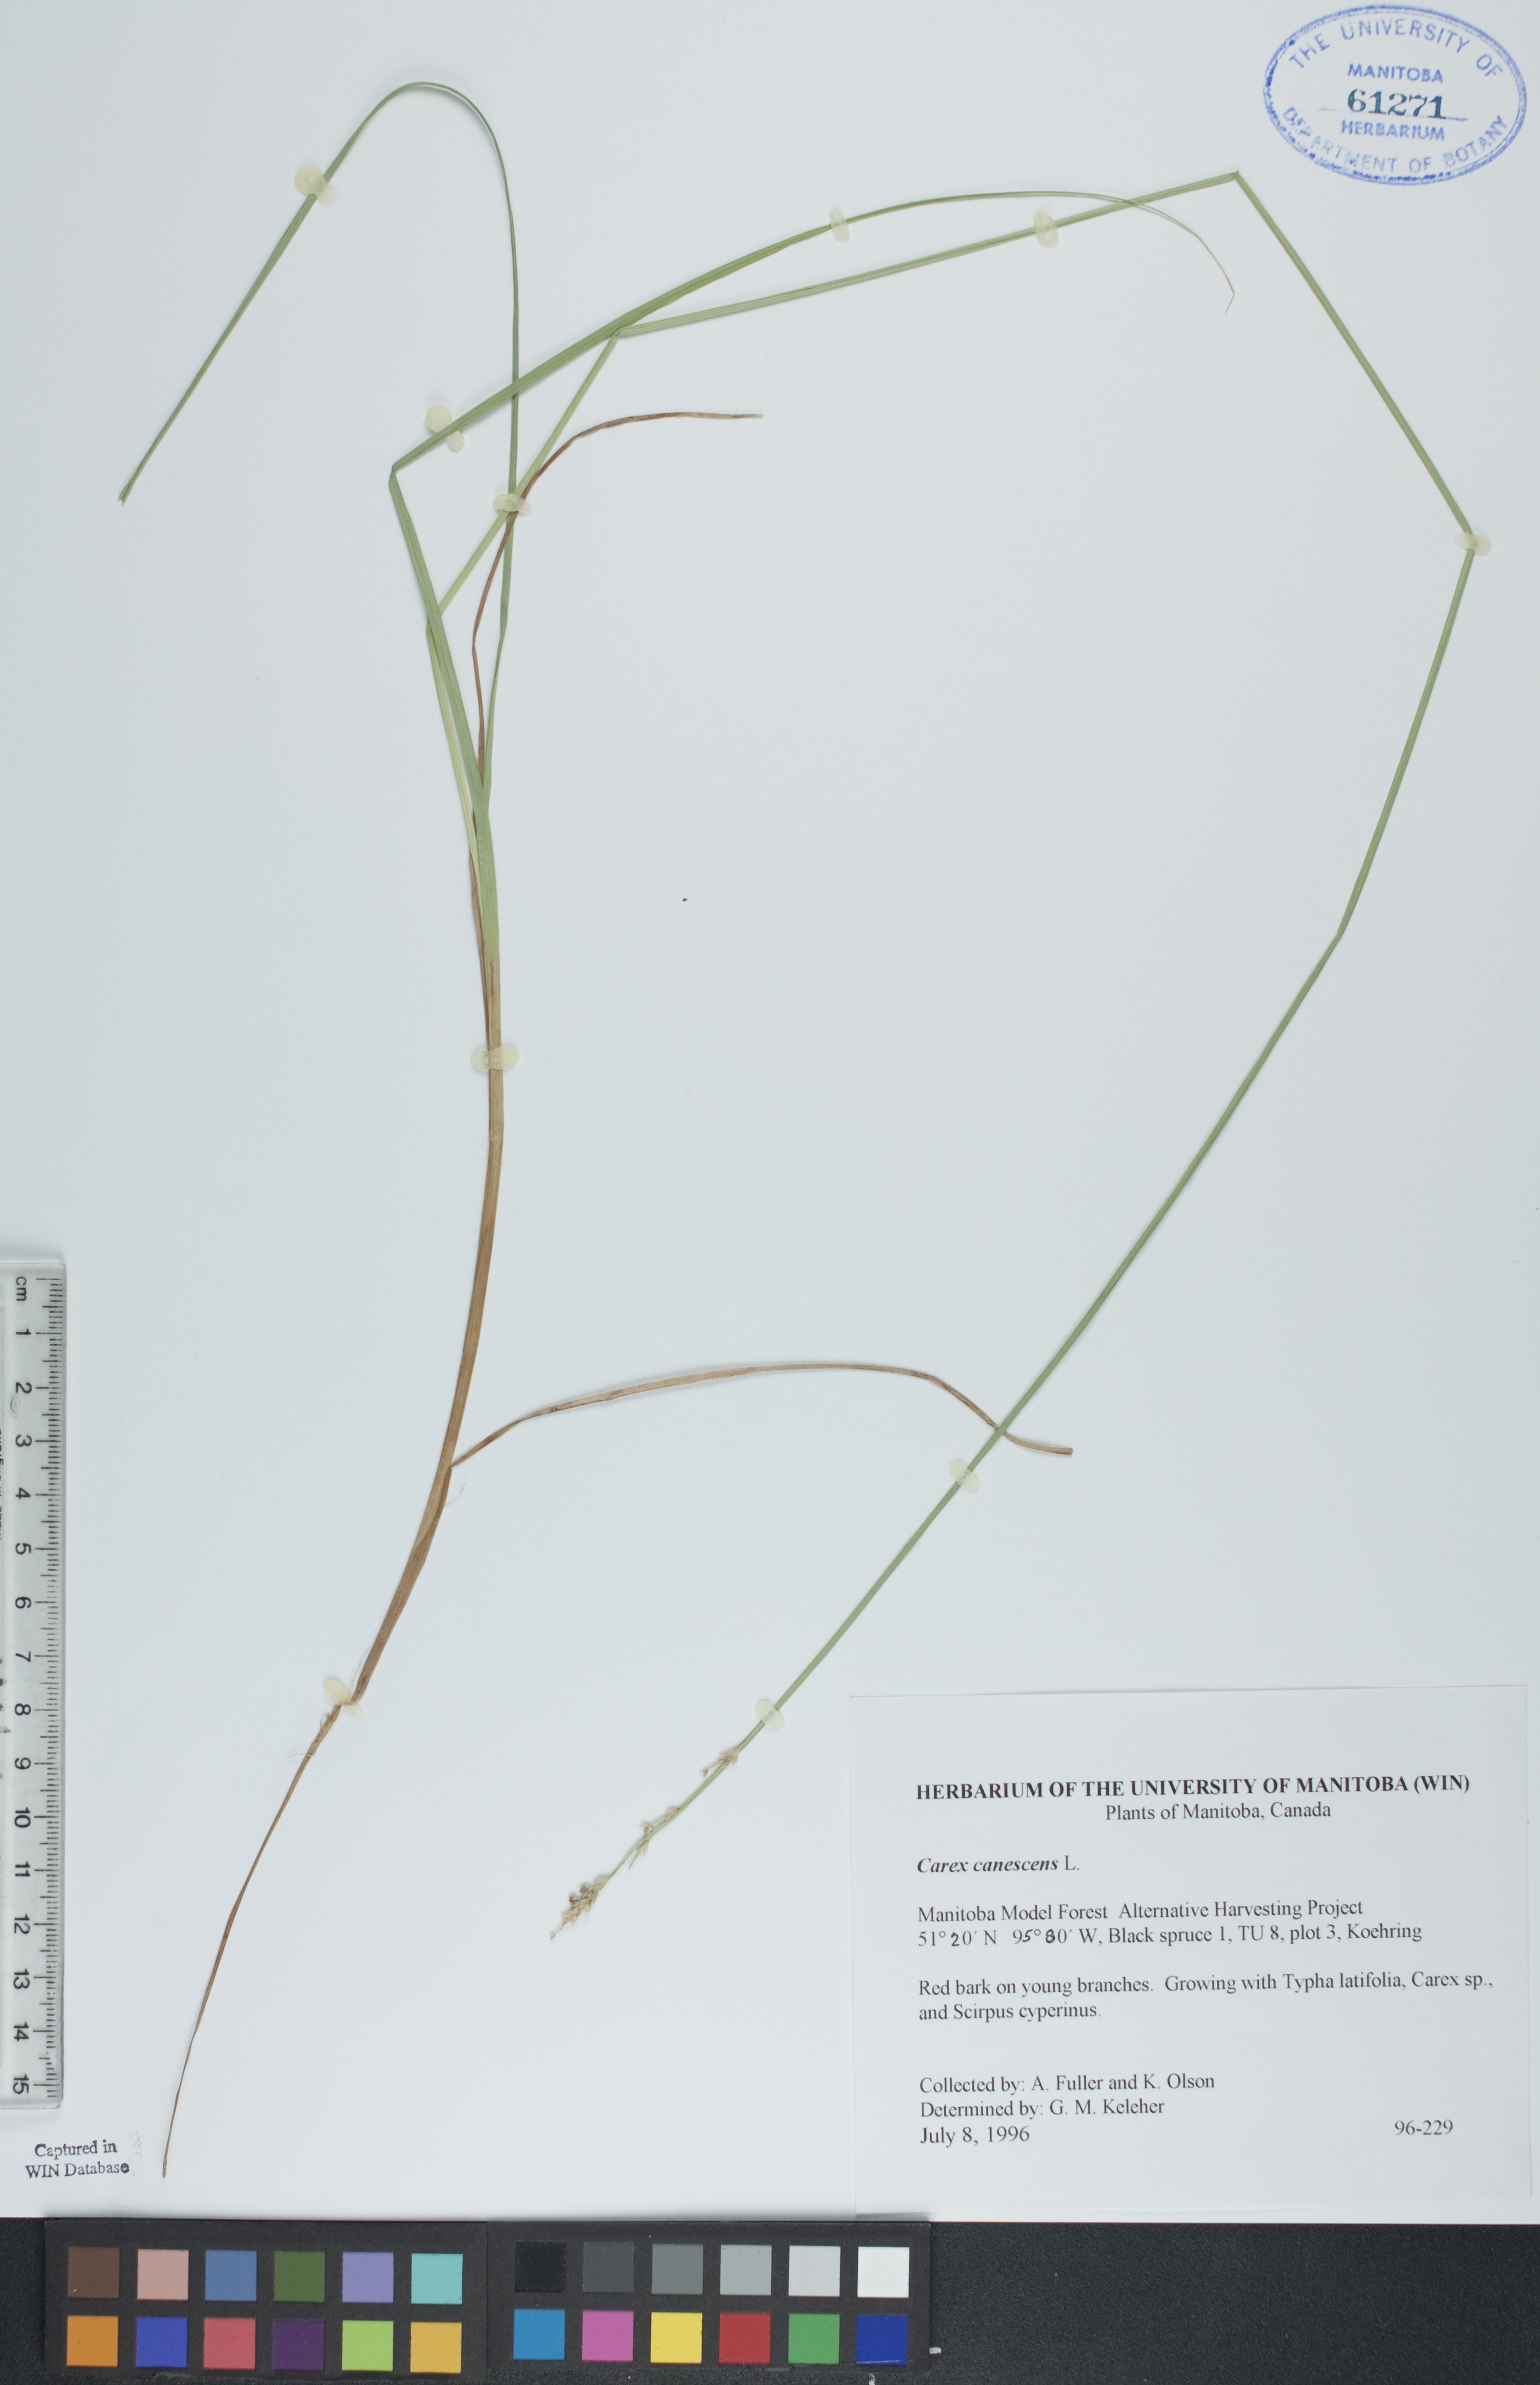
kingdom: Plantae
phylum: Tracheophyta
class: Liliopsida
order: Poales
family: Cyperaceae
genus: Carex
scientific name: Carex canescens
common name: White sedge
